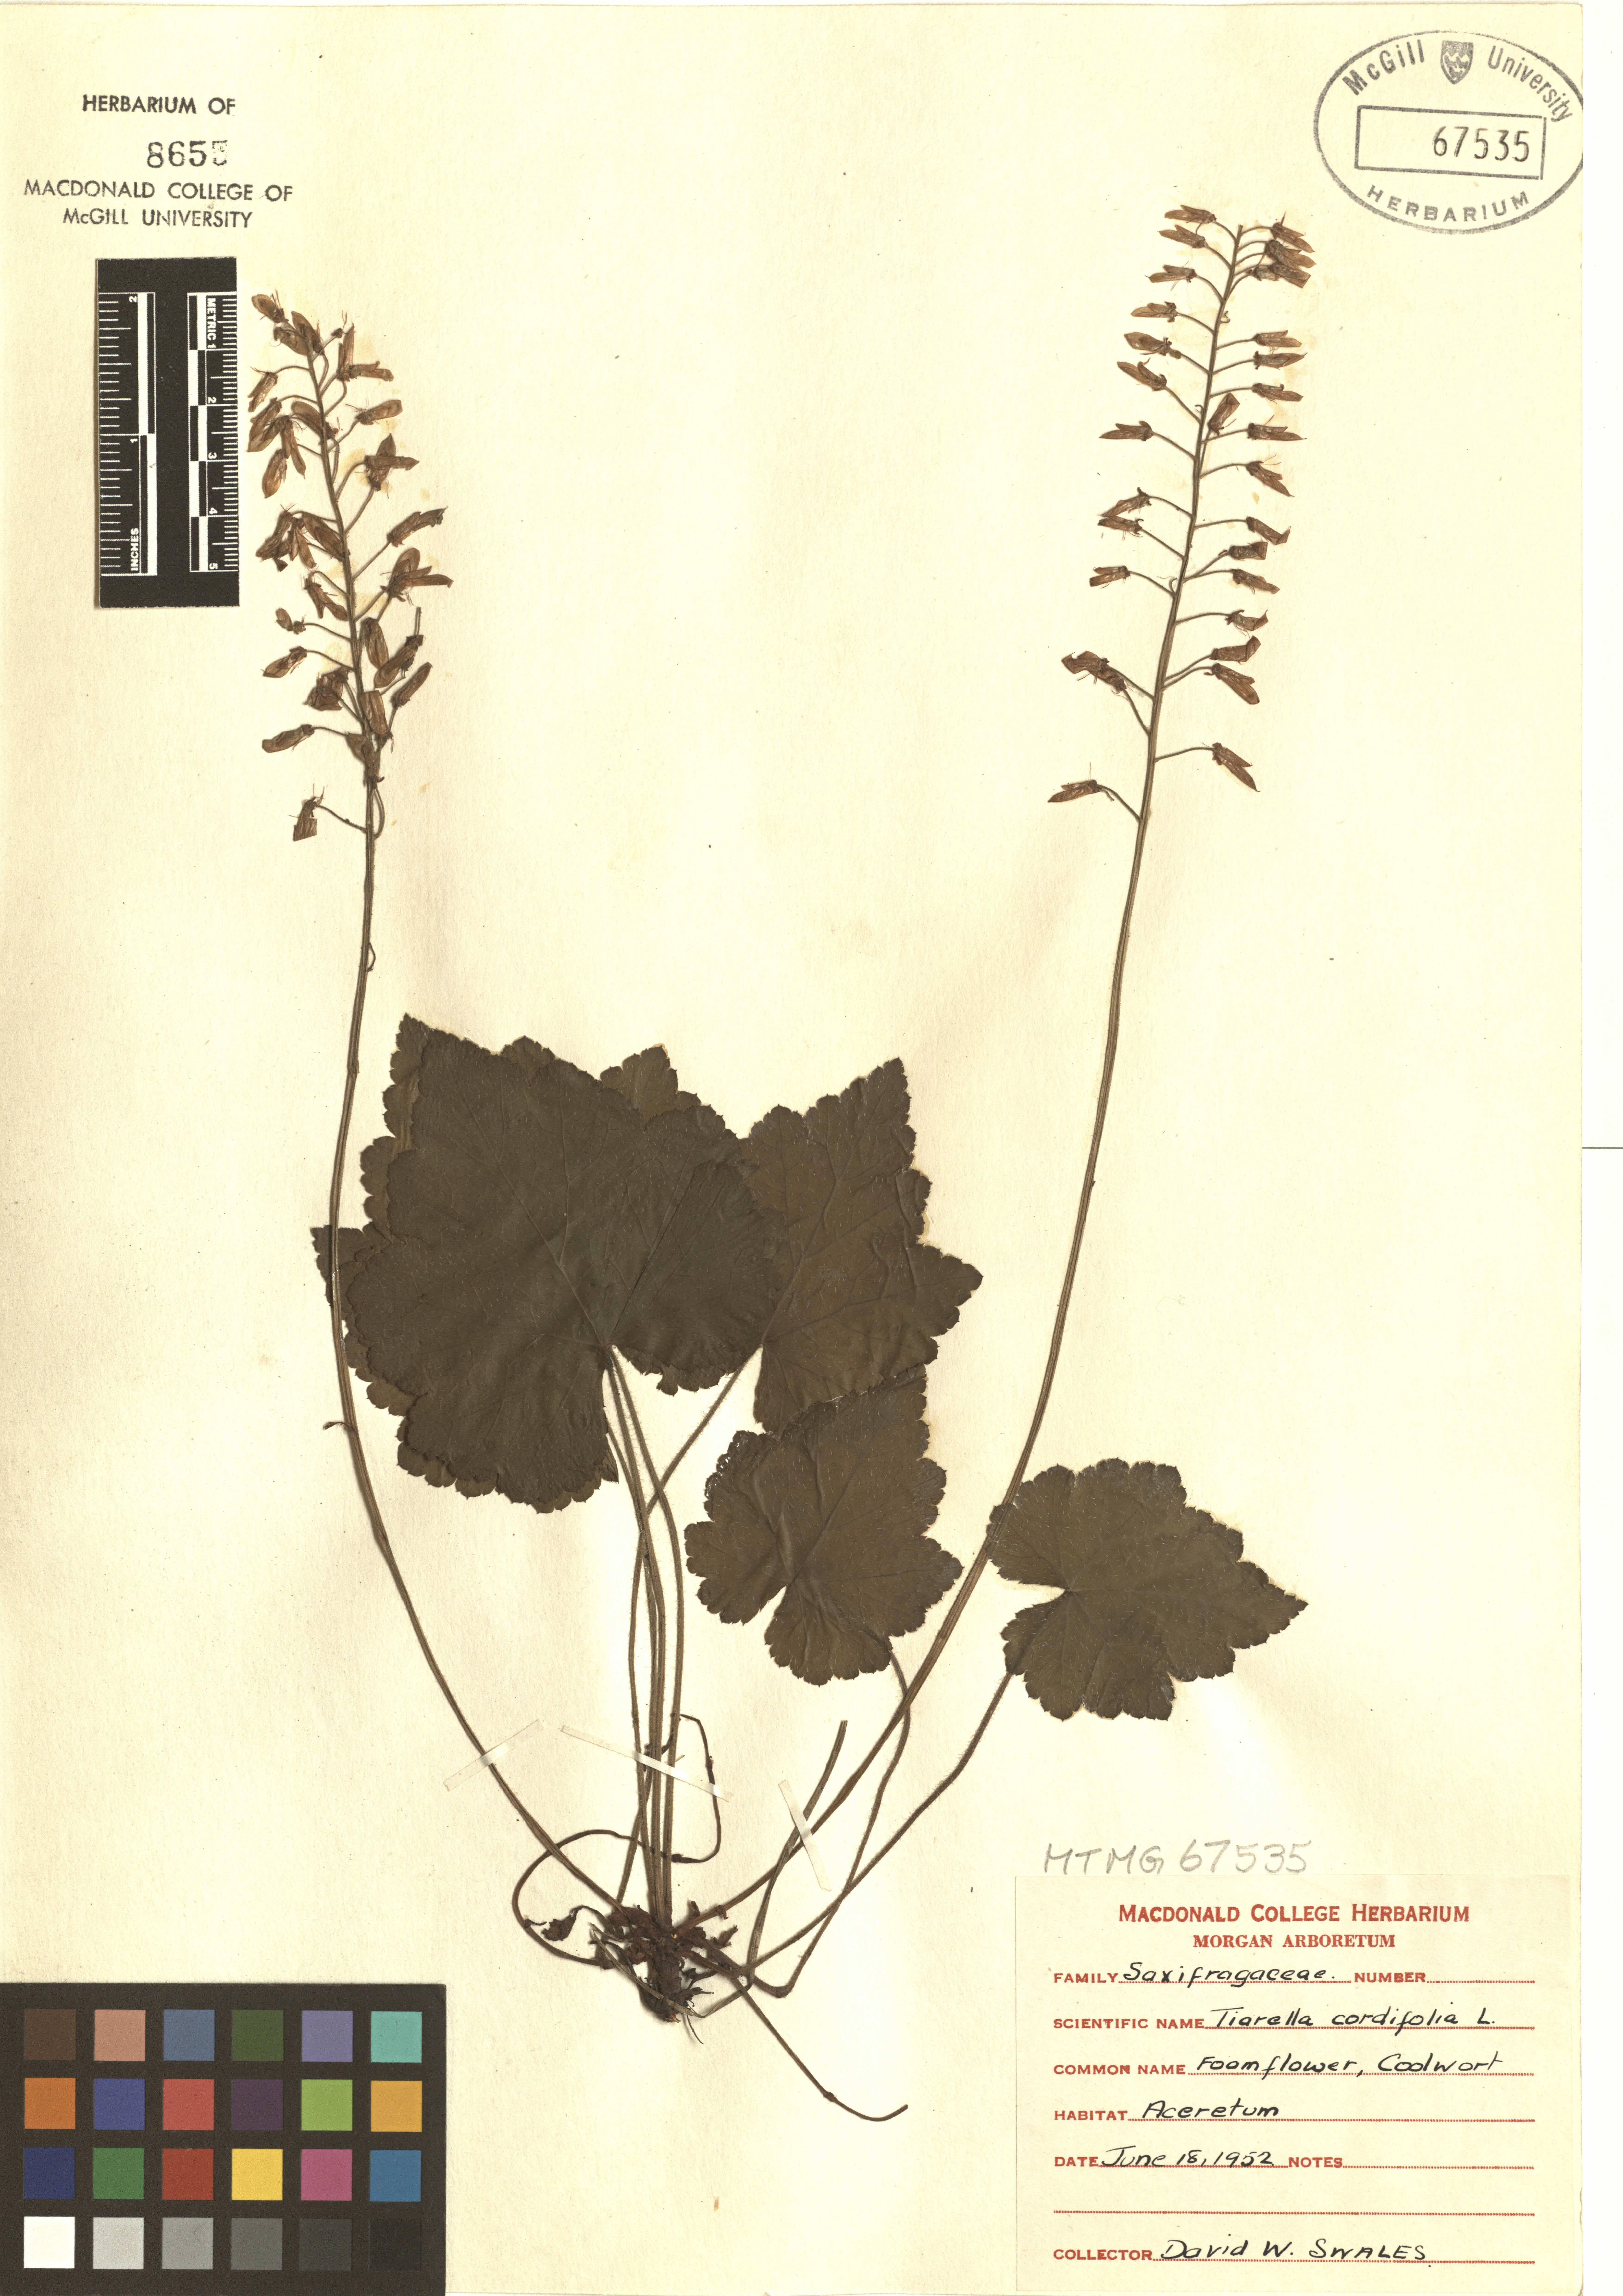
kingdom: Plantae
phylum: Tracheophyta
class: Magnoliopsida
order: Saxifragales
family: Saxifragaceae
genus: Tiarella
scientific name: Tiarella cordifolia
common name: Foamflower
